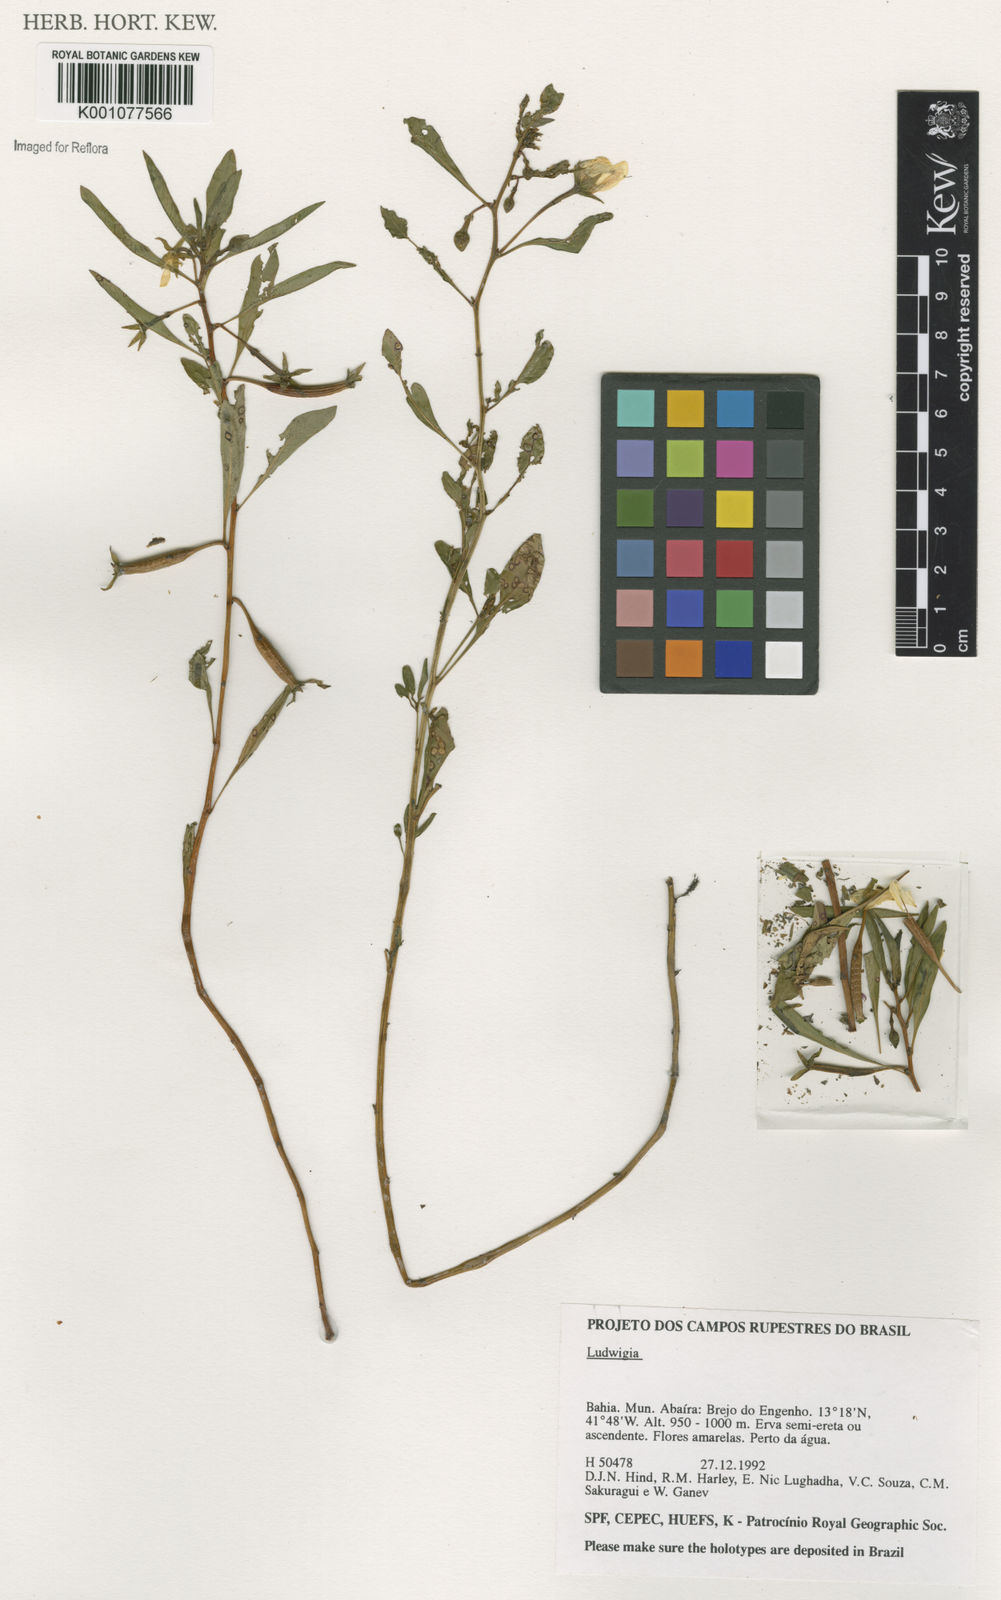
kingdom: Plantae
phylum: Tracheophyta
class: Magnoliopsida
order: Myrtales
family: Onagraceae
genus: Ludwigia
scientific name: Ludwigia
